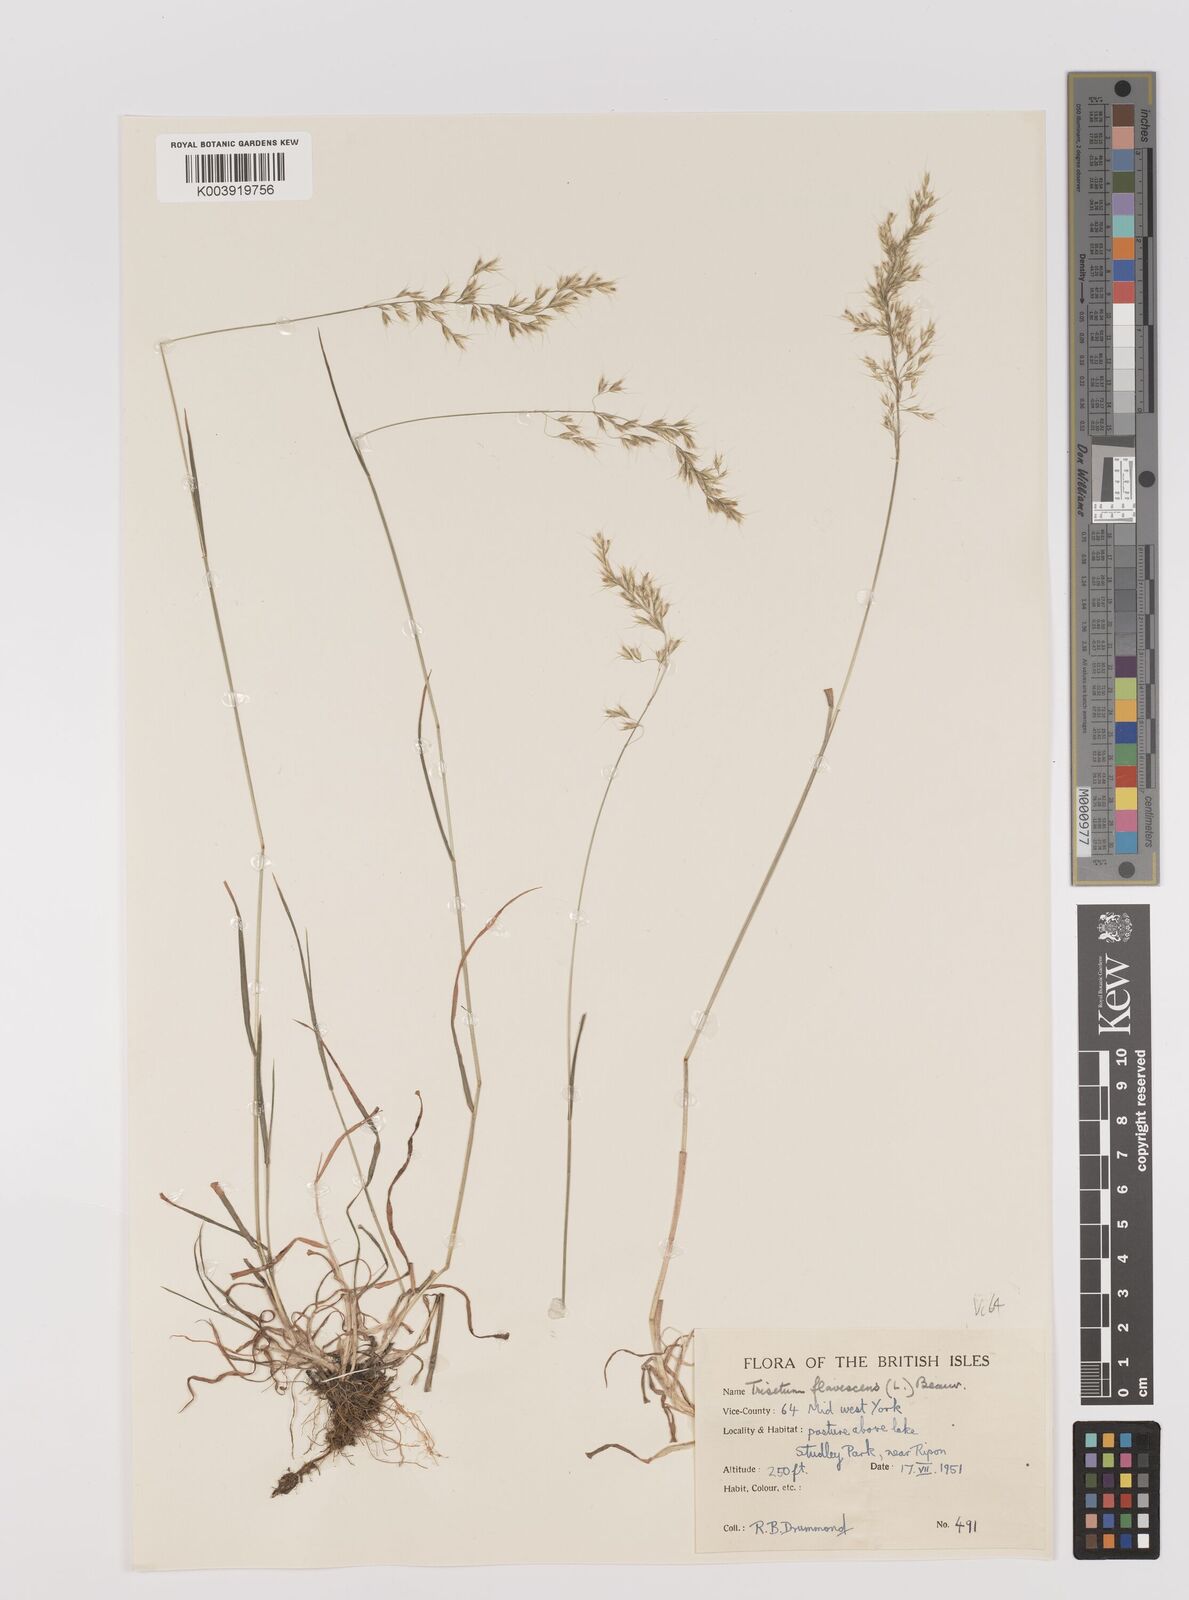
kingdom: Plantae
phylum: Tracheophyta
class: Liliopsida
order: Poales
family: Poaceae
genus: Trisetum
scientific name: Trisetum flavescens
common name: Yellow oat-grass
